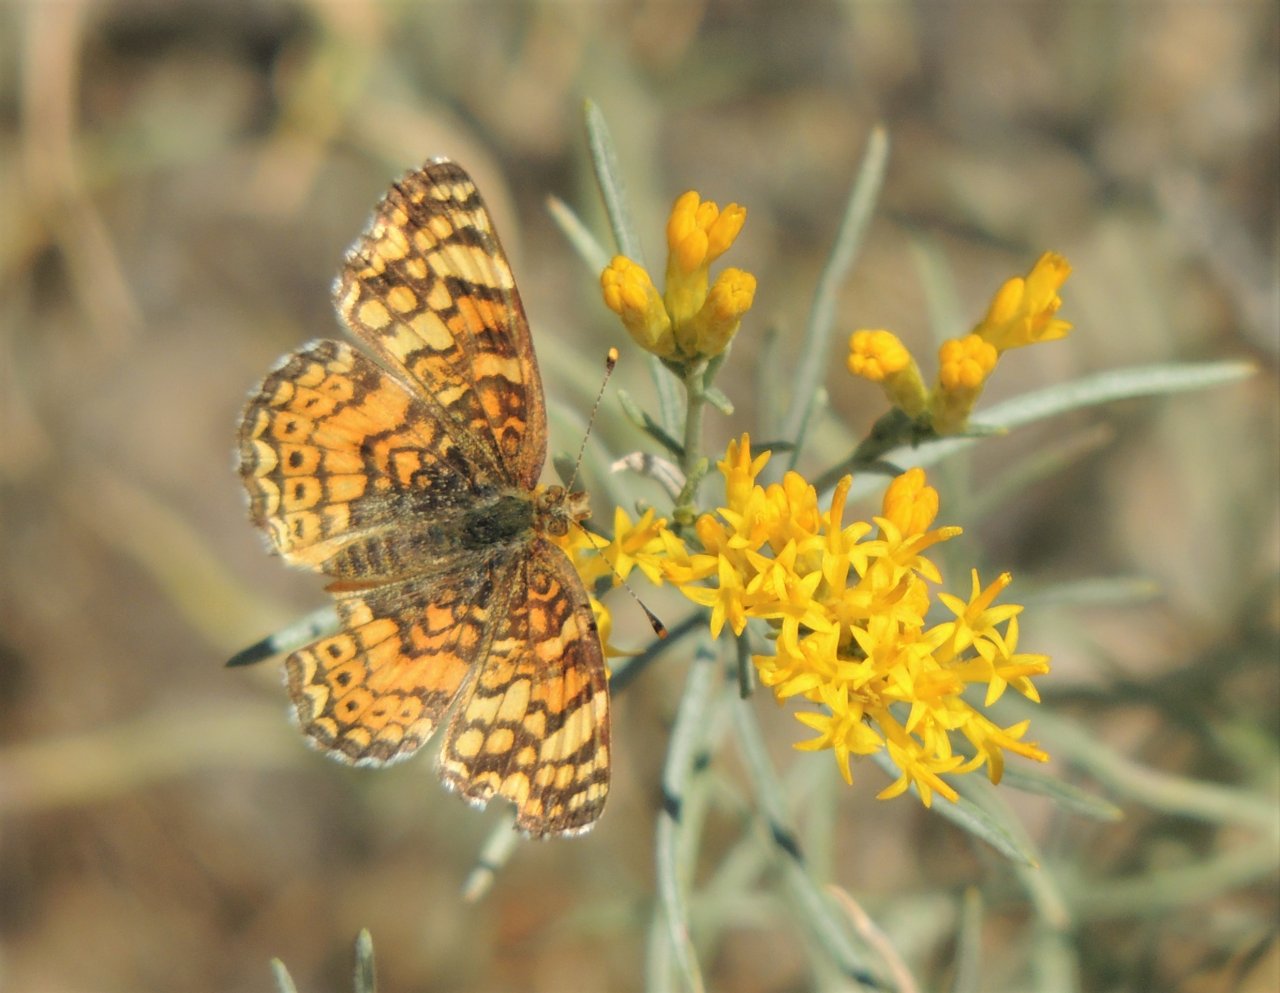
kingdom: Animalia
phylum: Arthropoda
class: Insecta
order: Lepidoptera
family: Nymphalidae
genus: Eresia
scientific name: Eresia aveyrona
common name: Mylitta Crescent
